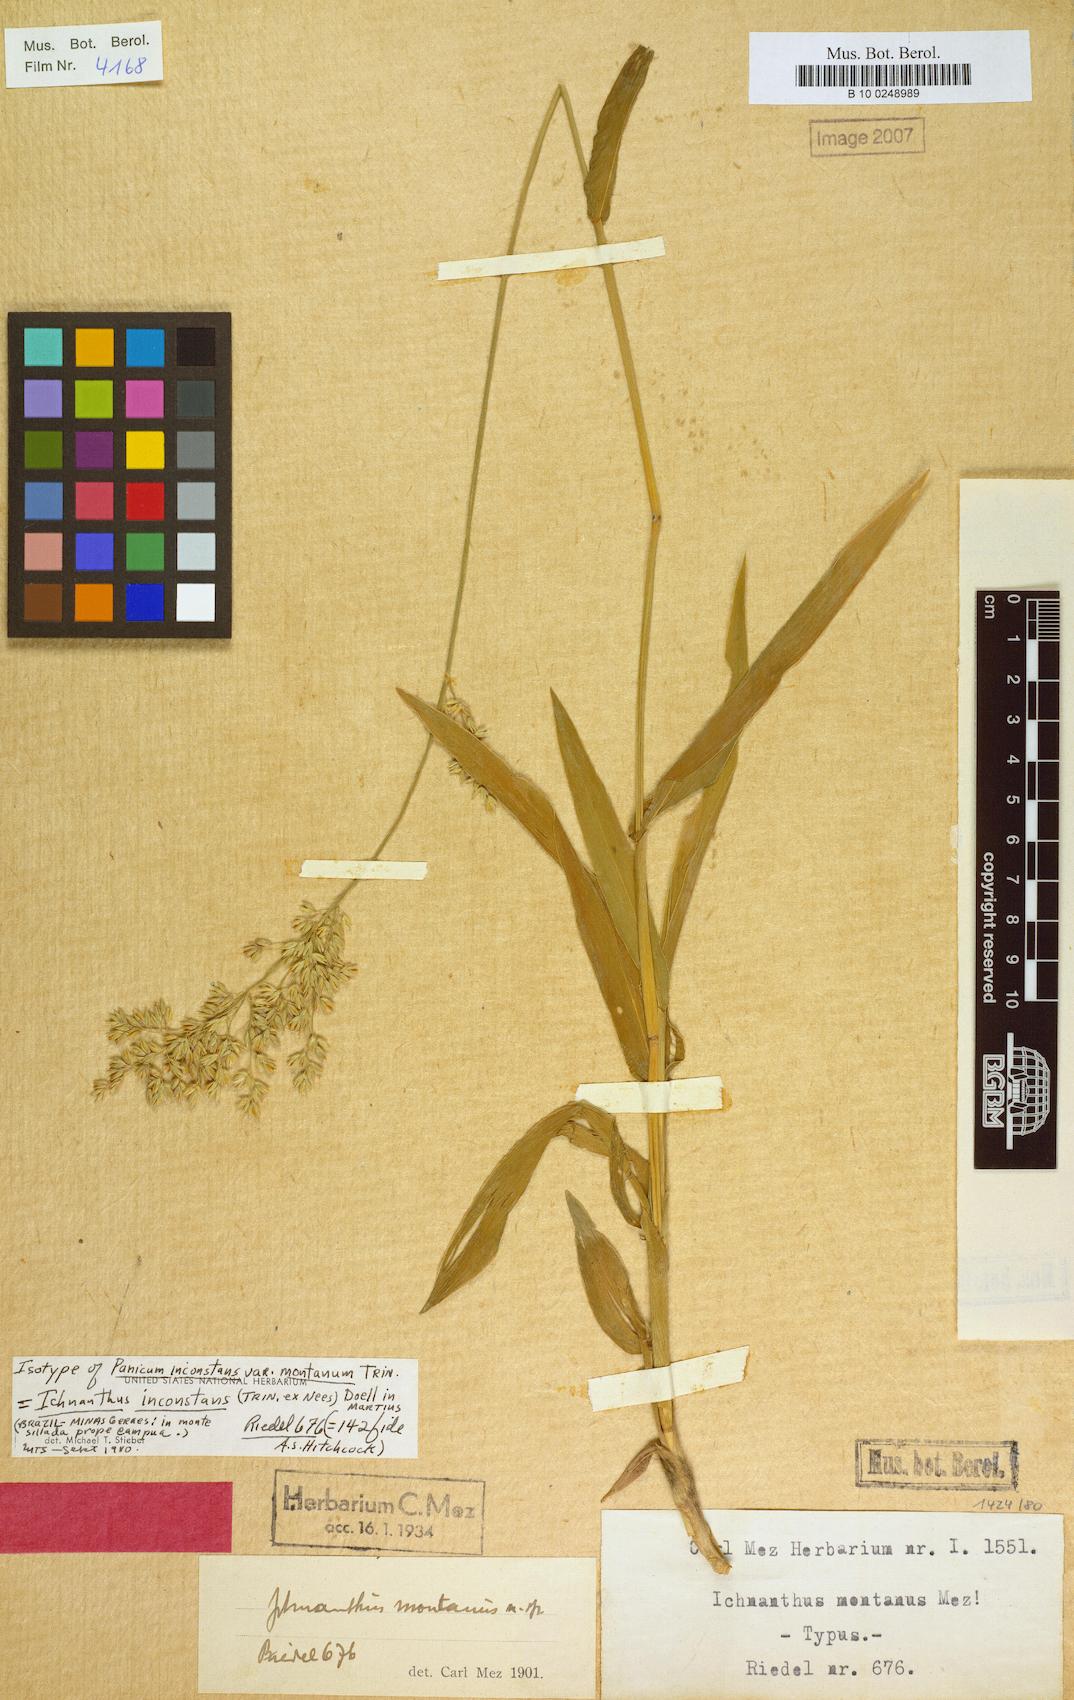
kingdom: Plantae
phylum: Tracheophyta
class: Liliopsida
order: Poales
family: Poaceae
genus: Ichnanthus
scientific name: Ichnanthus inconstans
